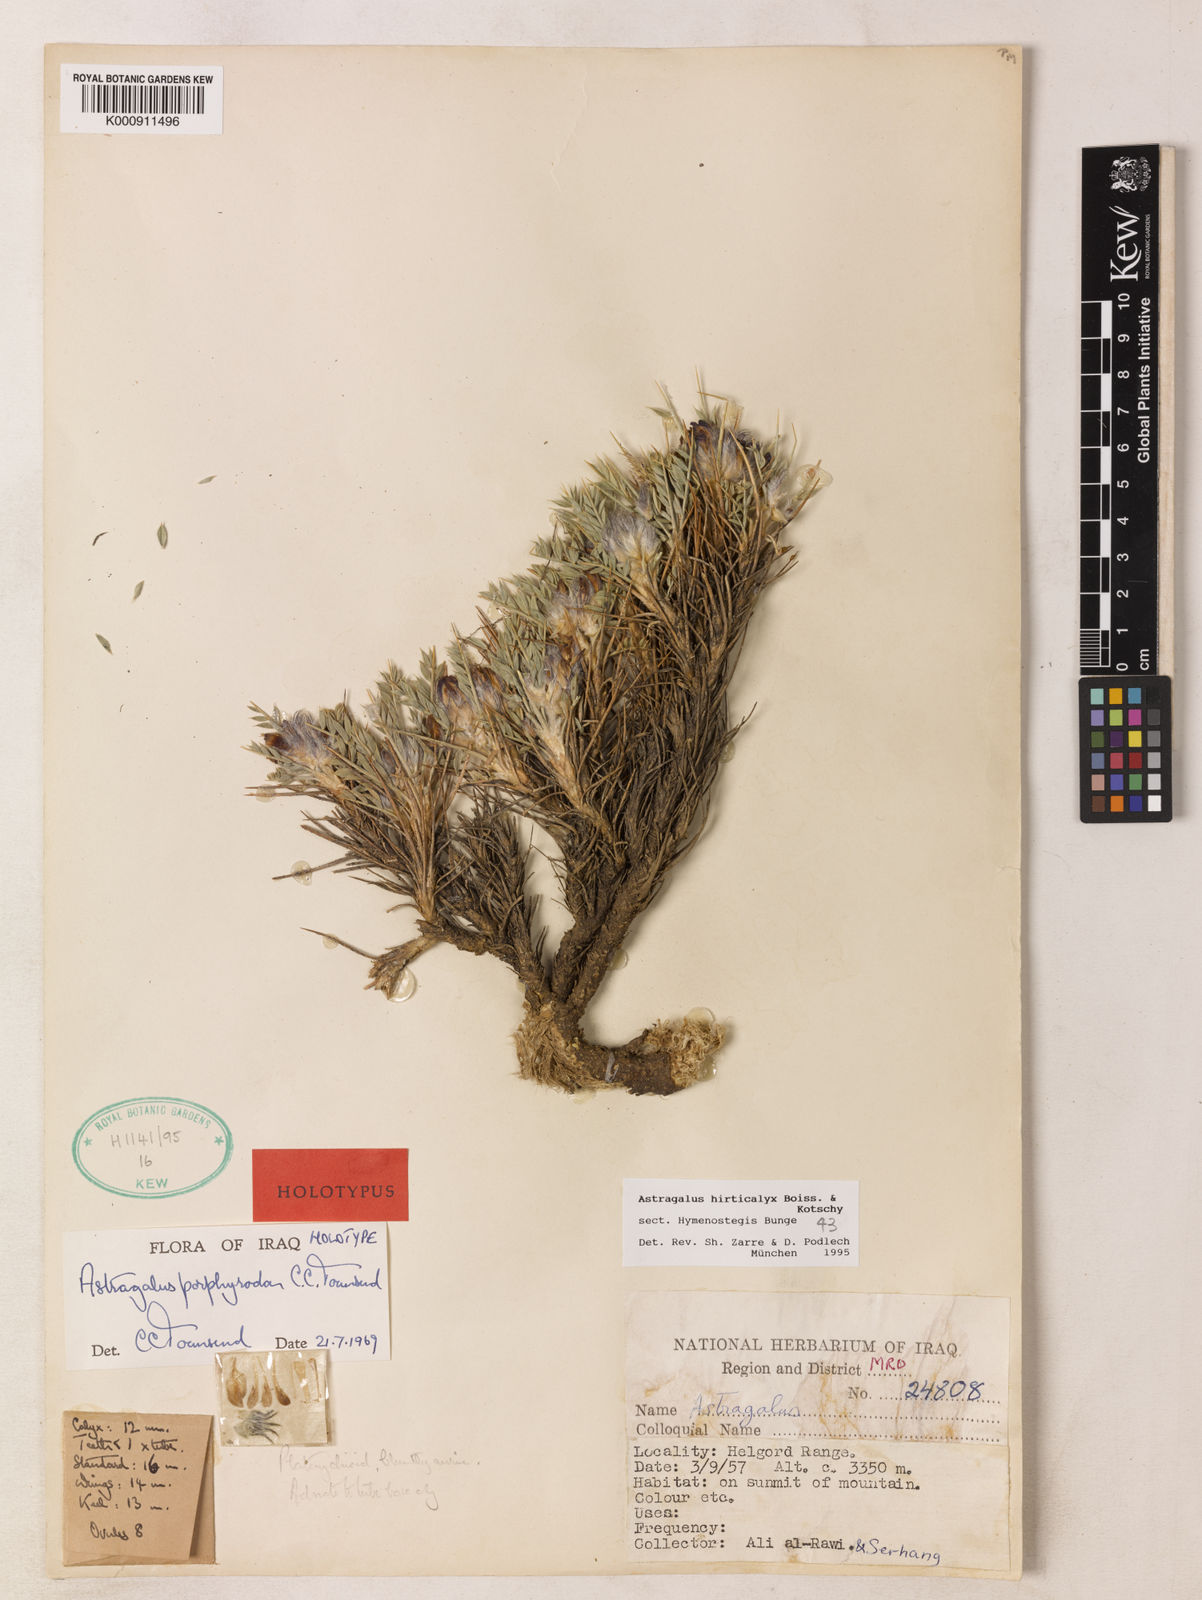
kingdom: Plantae
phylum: Tracheophyta
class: Magnoliopsida
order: Fabales
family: Fabaceae
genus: Astragalus
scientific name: Astragalus hirticalyx
